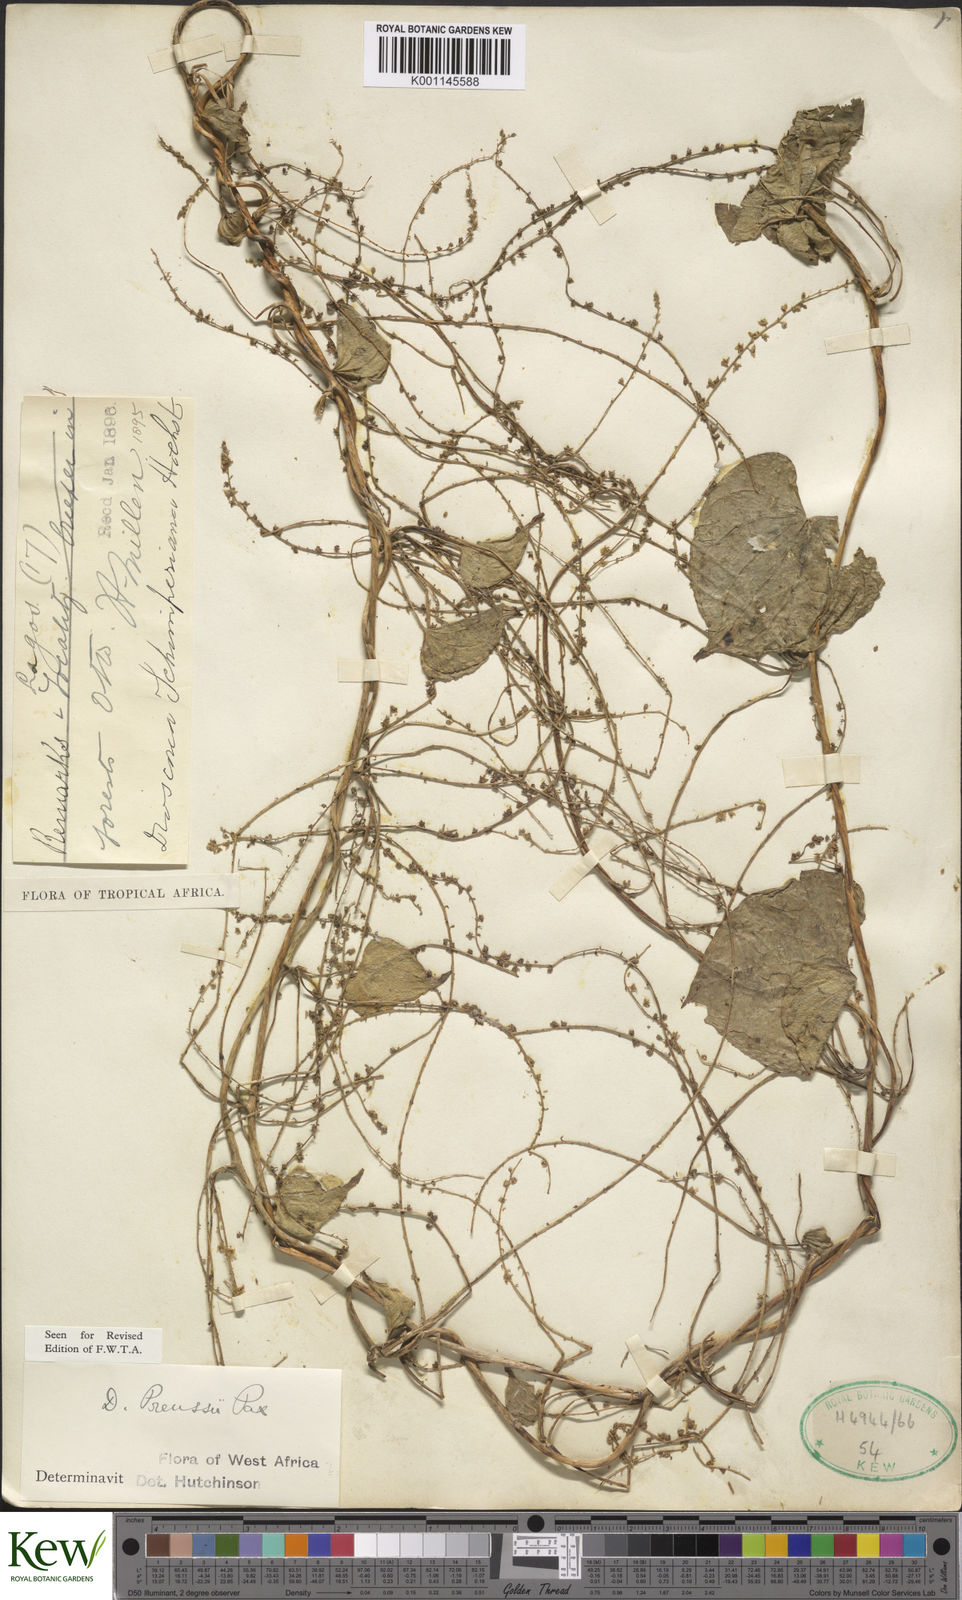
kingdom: Plantae
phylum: Tracheophyta
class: Liliopsida
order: Dioscoreales
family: Dioscoreaceae
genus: Dioscorea
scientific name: Dioscorea preussii
